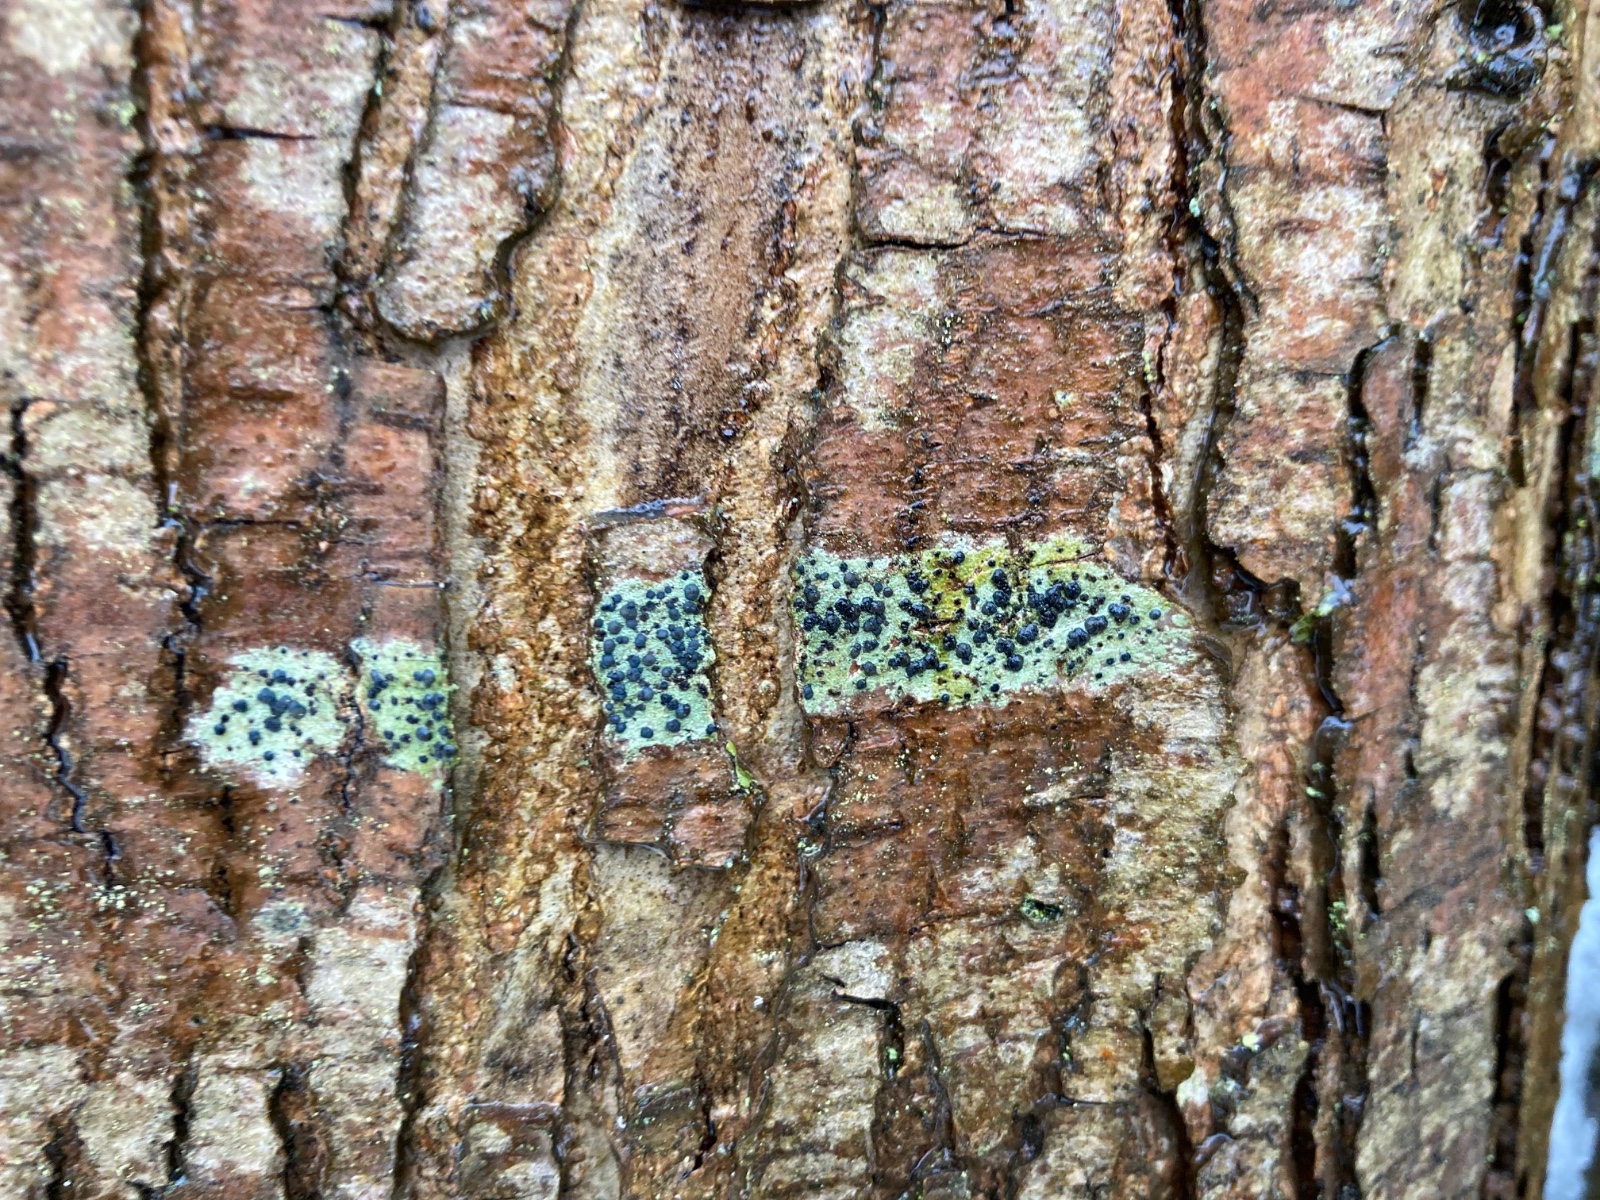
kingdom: Fungi
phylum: Ascomycota
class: Lecanoromycetes
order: Lecanorales
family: Lecanoraceae
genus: Lecidella
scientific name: Lecidella elaeochroma
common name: grågrøn skivelav
